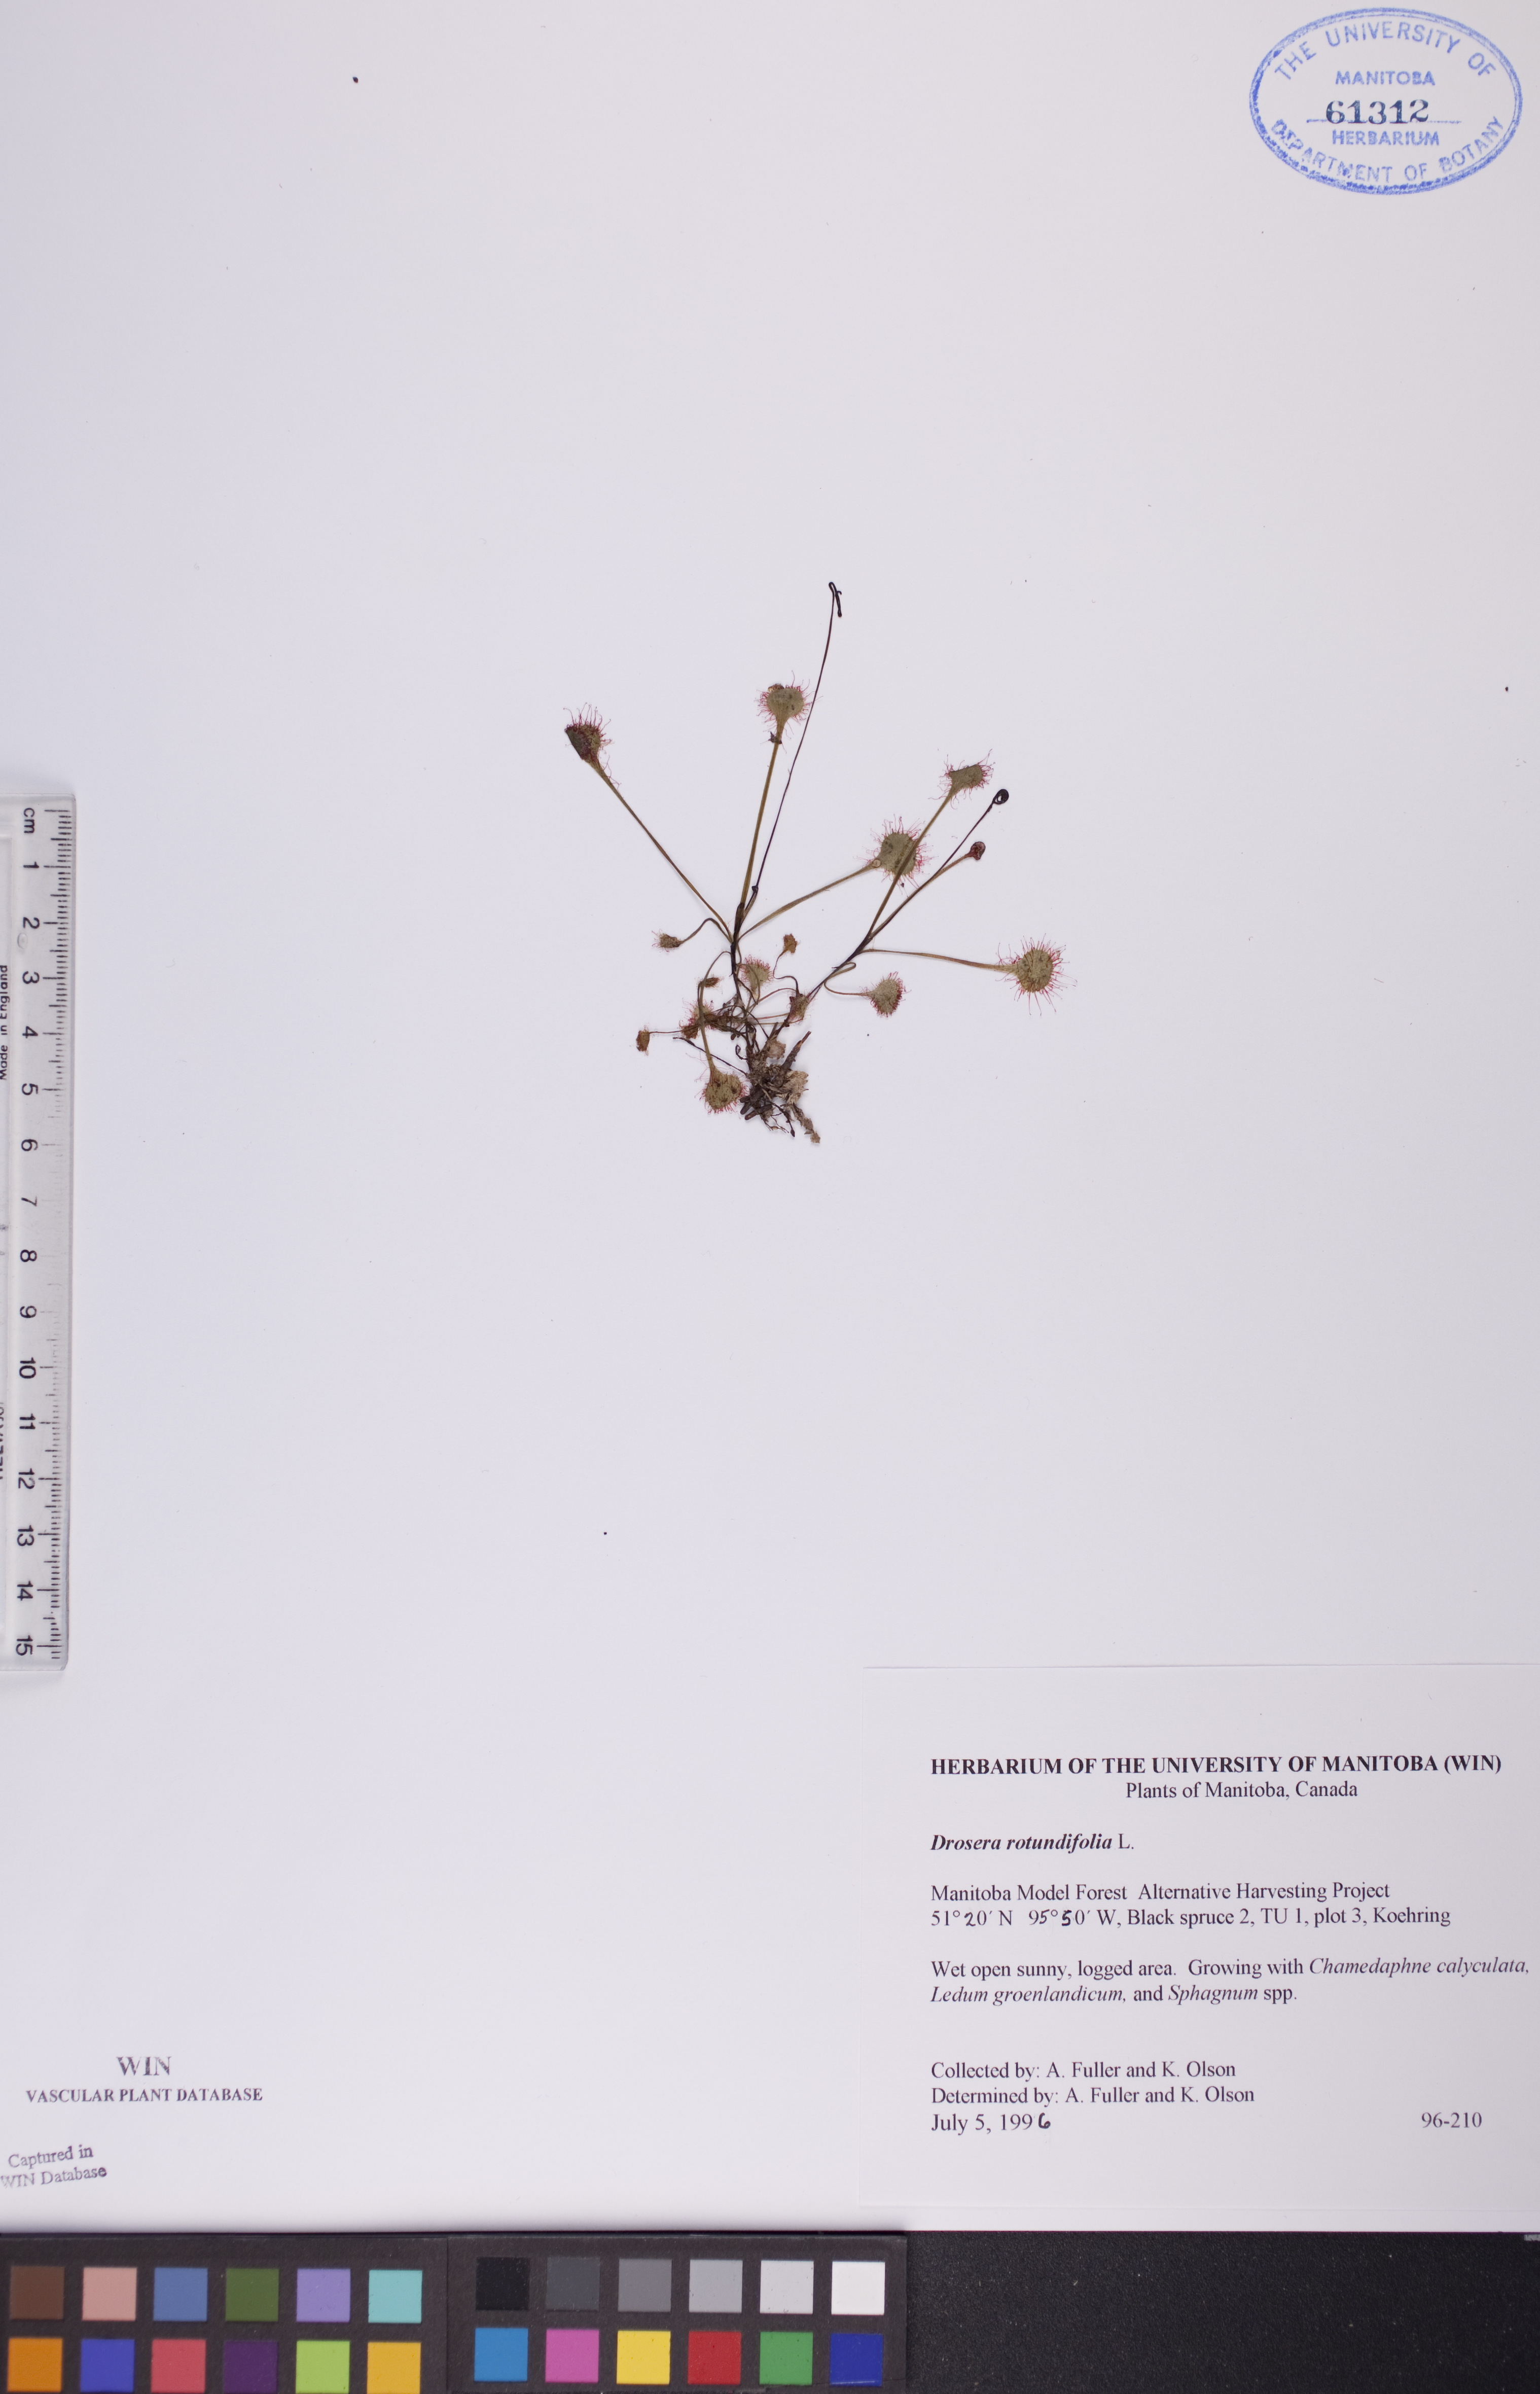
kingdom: Plantae
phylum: Tracheophyta
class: Magnoliopsida
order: Caryophyllales
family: Droseraceae
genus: Drosera
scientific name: Drosera rotundifolia
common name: Round-leaved sundew
